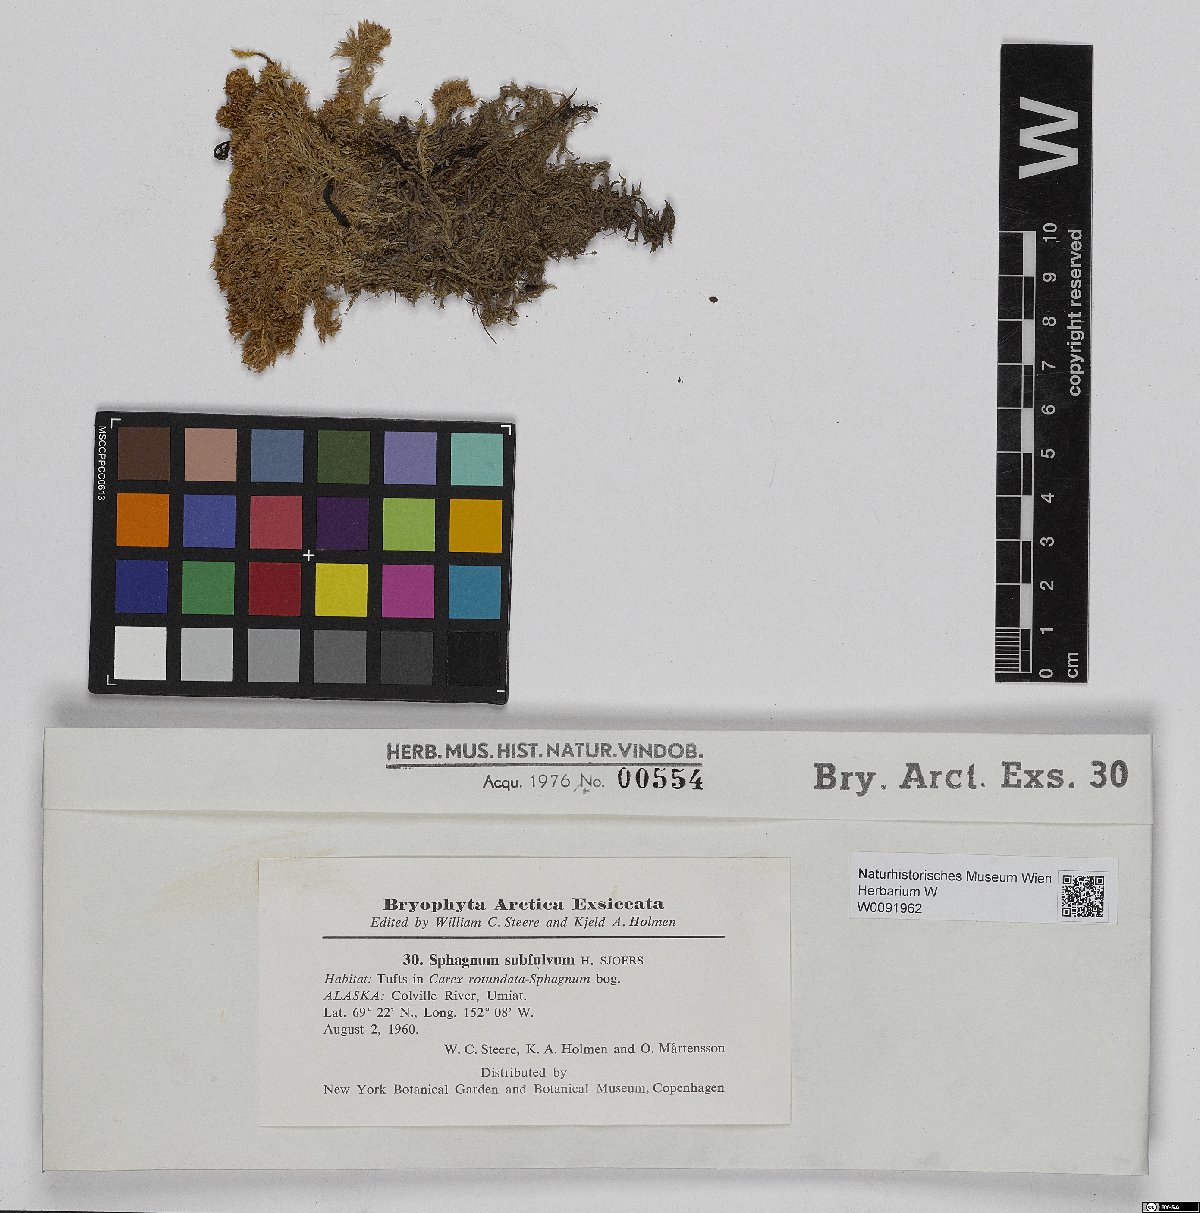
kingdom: Plantae
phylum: Bryophyta
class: Sphagnopsida
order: Sphagnales
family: Sphagnaceae
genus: Sphagnum
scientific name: Sphagnum subfulvum
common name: Fulvous peat moss
